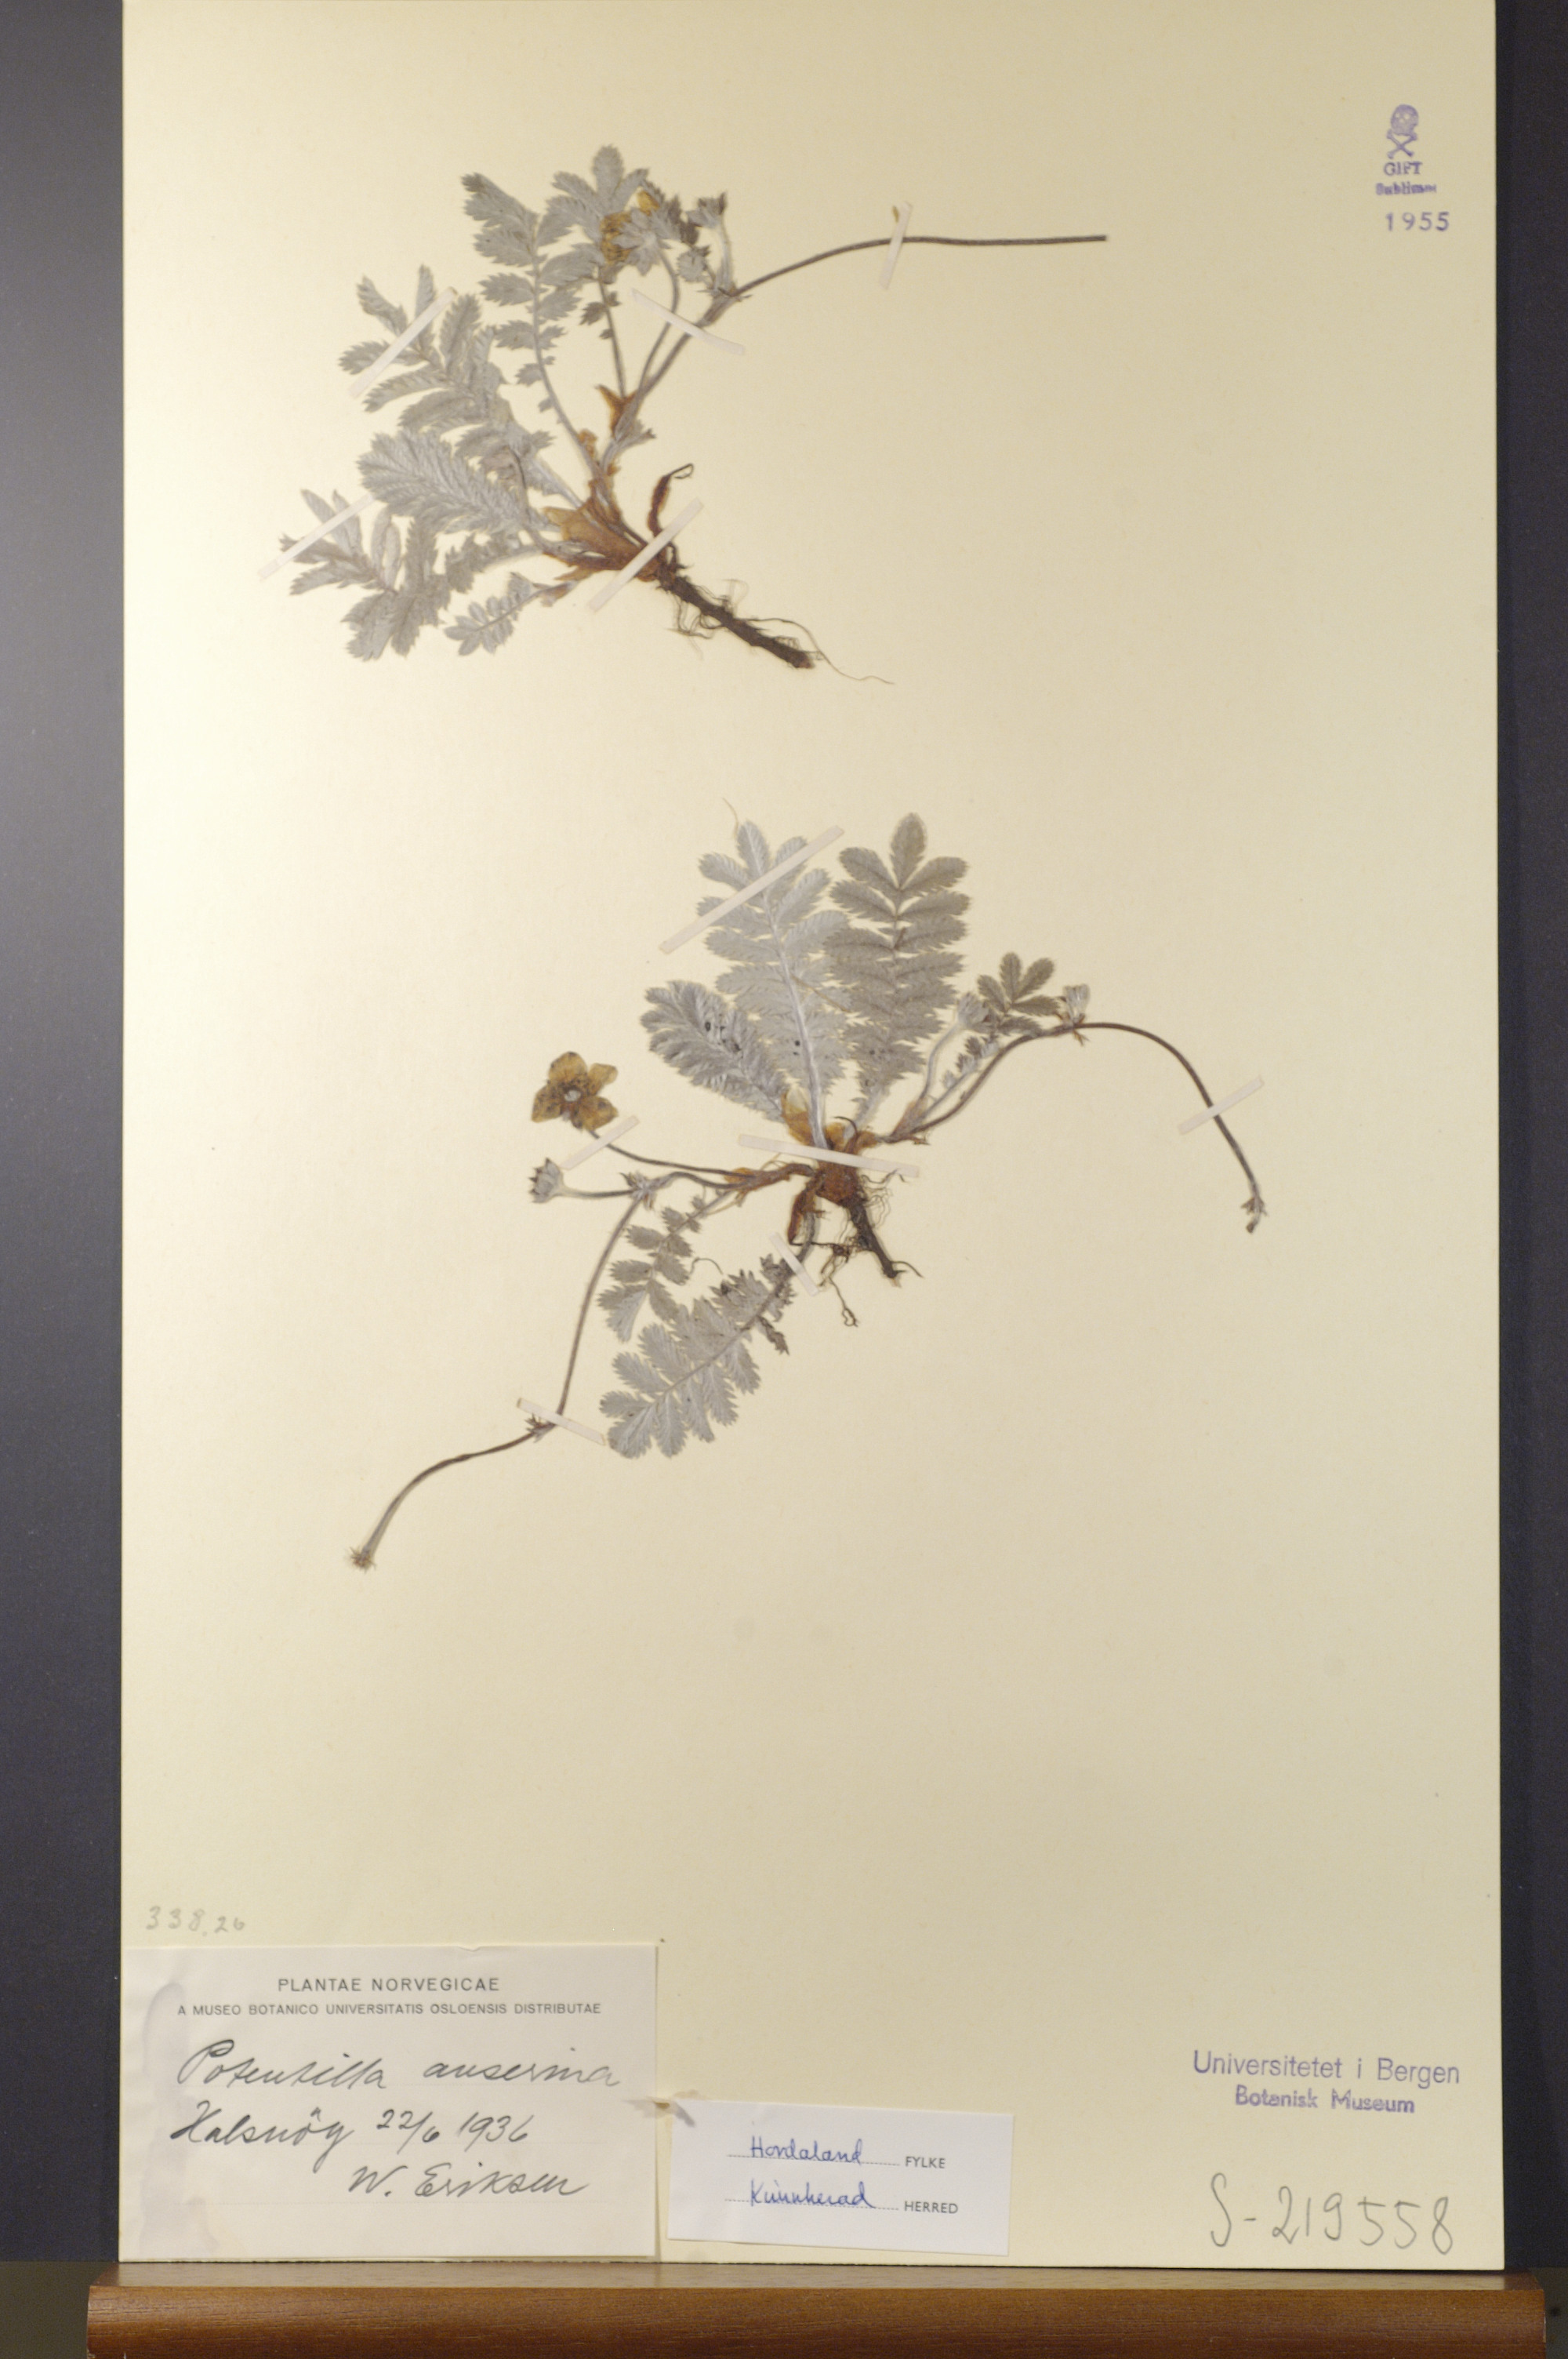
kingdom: Plantae
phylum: Tracheophyta
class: Magnoliopsida
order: Rosales
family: Rosaceae
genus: Argentina
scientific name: Argentina anserina
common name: Common silverweed
